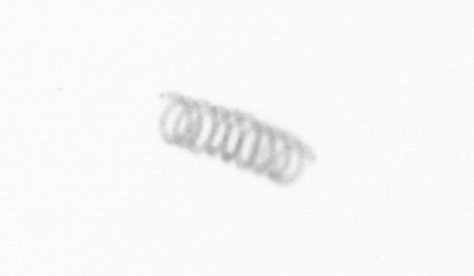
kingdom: Chromista
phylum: Ochrophyta
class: Bacillariophyceae
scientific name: Bacillariophyceae
